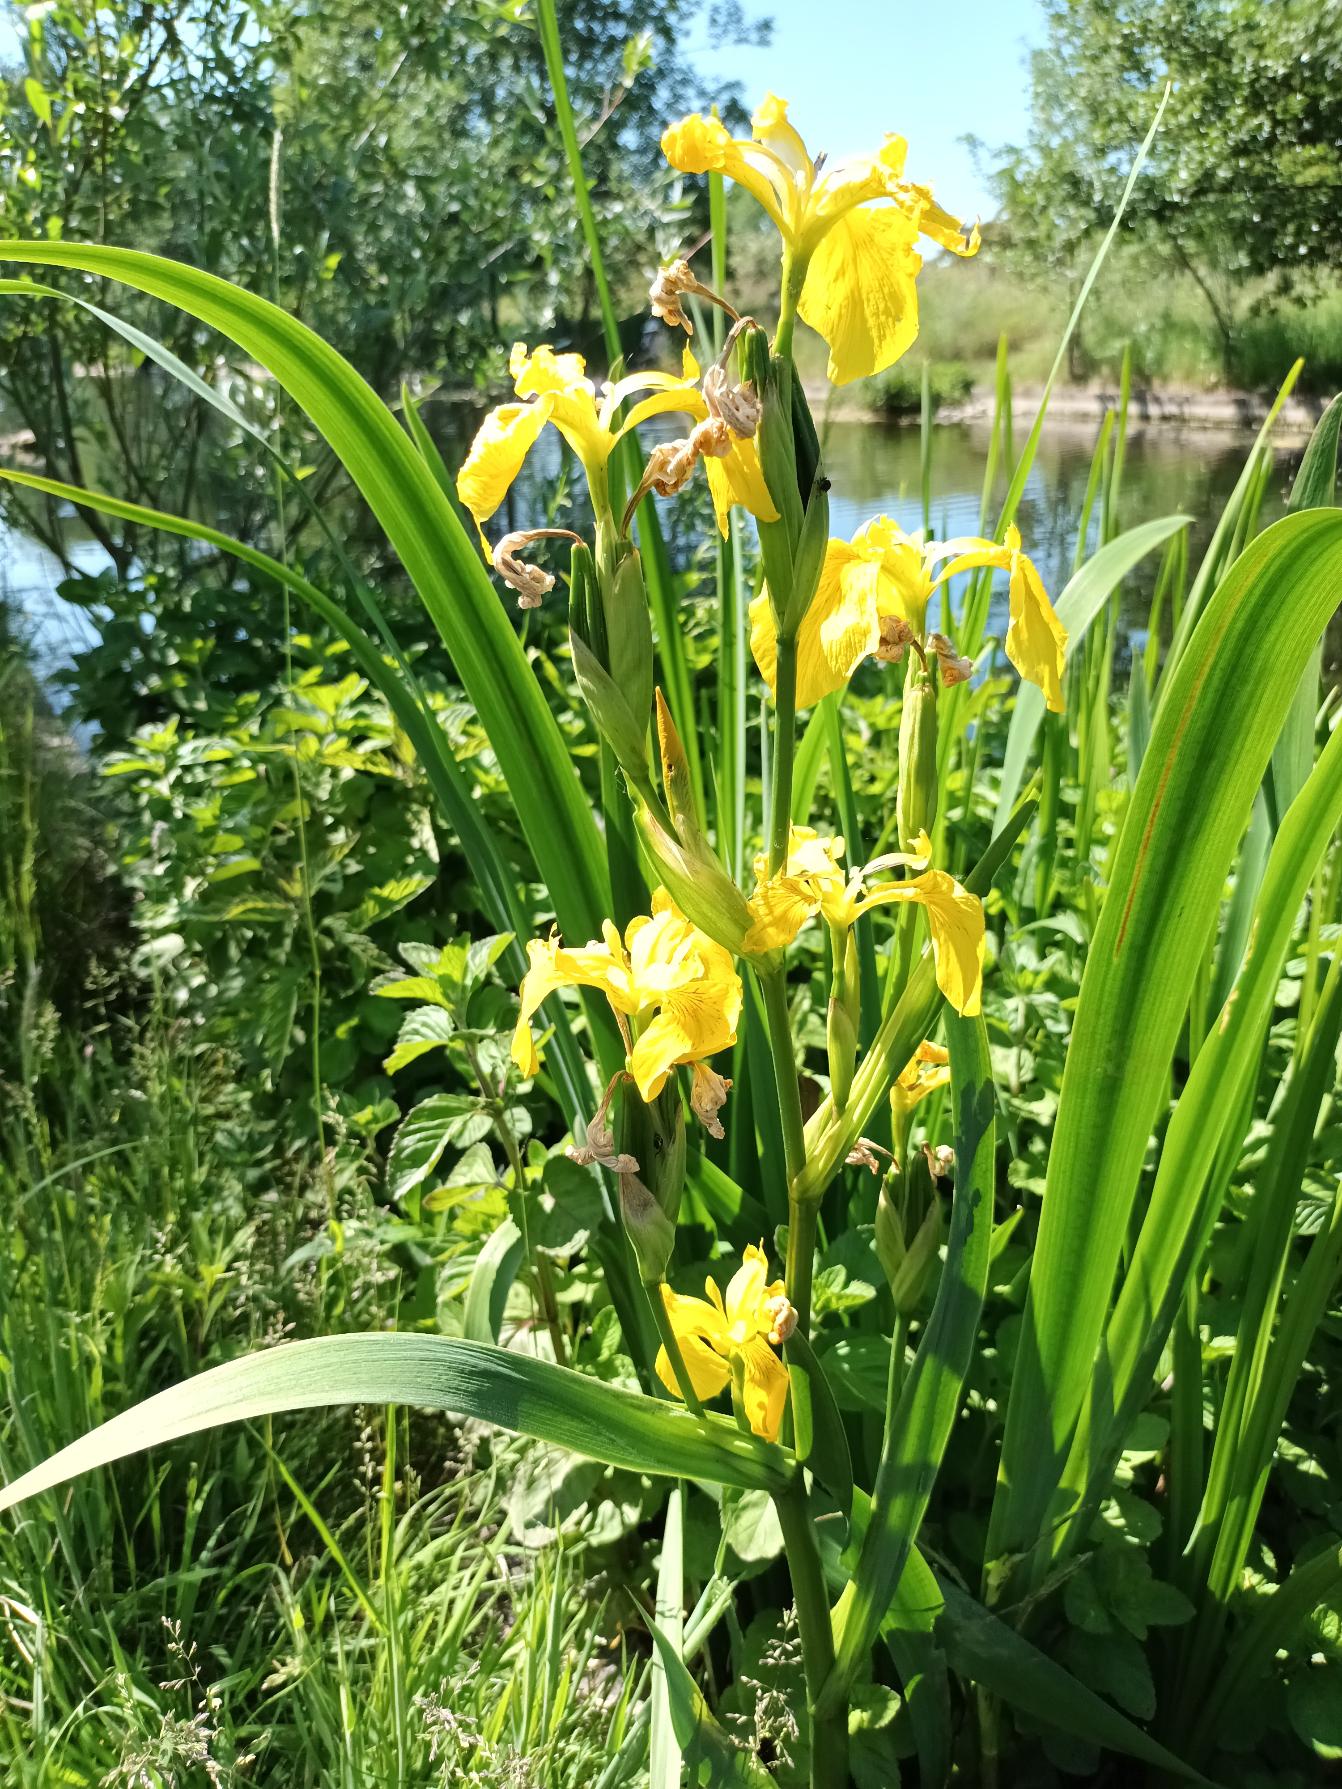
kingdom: Plantae
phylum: Tracheophyta
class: Liliopsida
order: Asparagales
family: Iridaceae
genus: Iris
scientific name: Iris pseudacorus
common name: Gul iris
